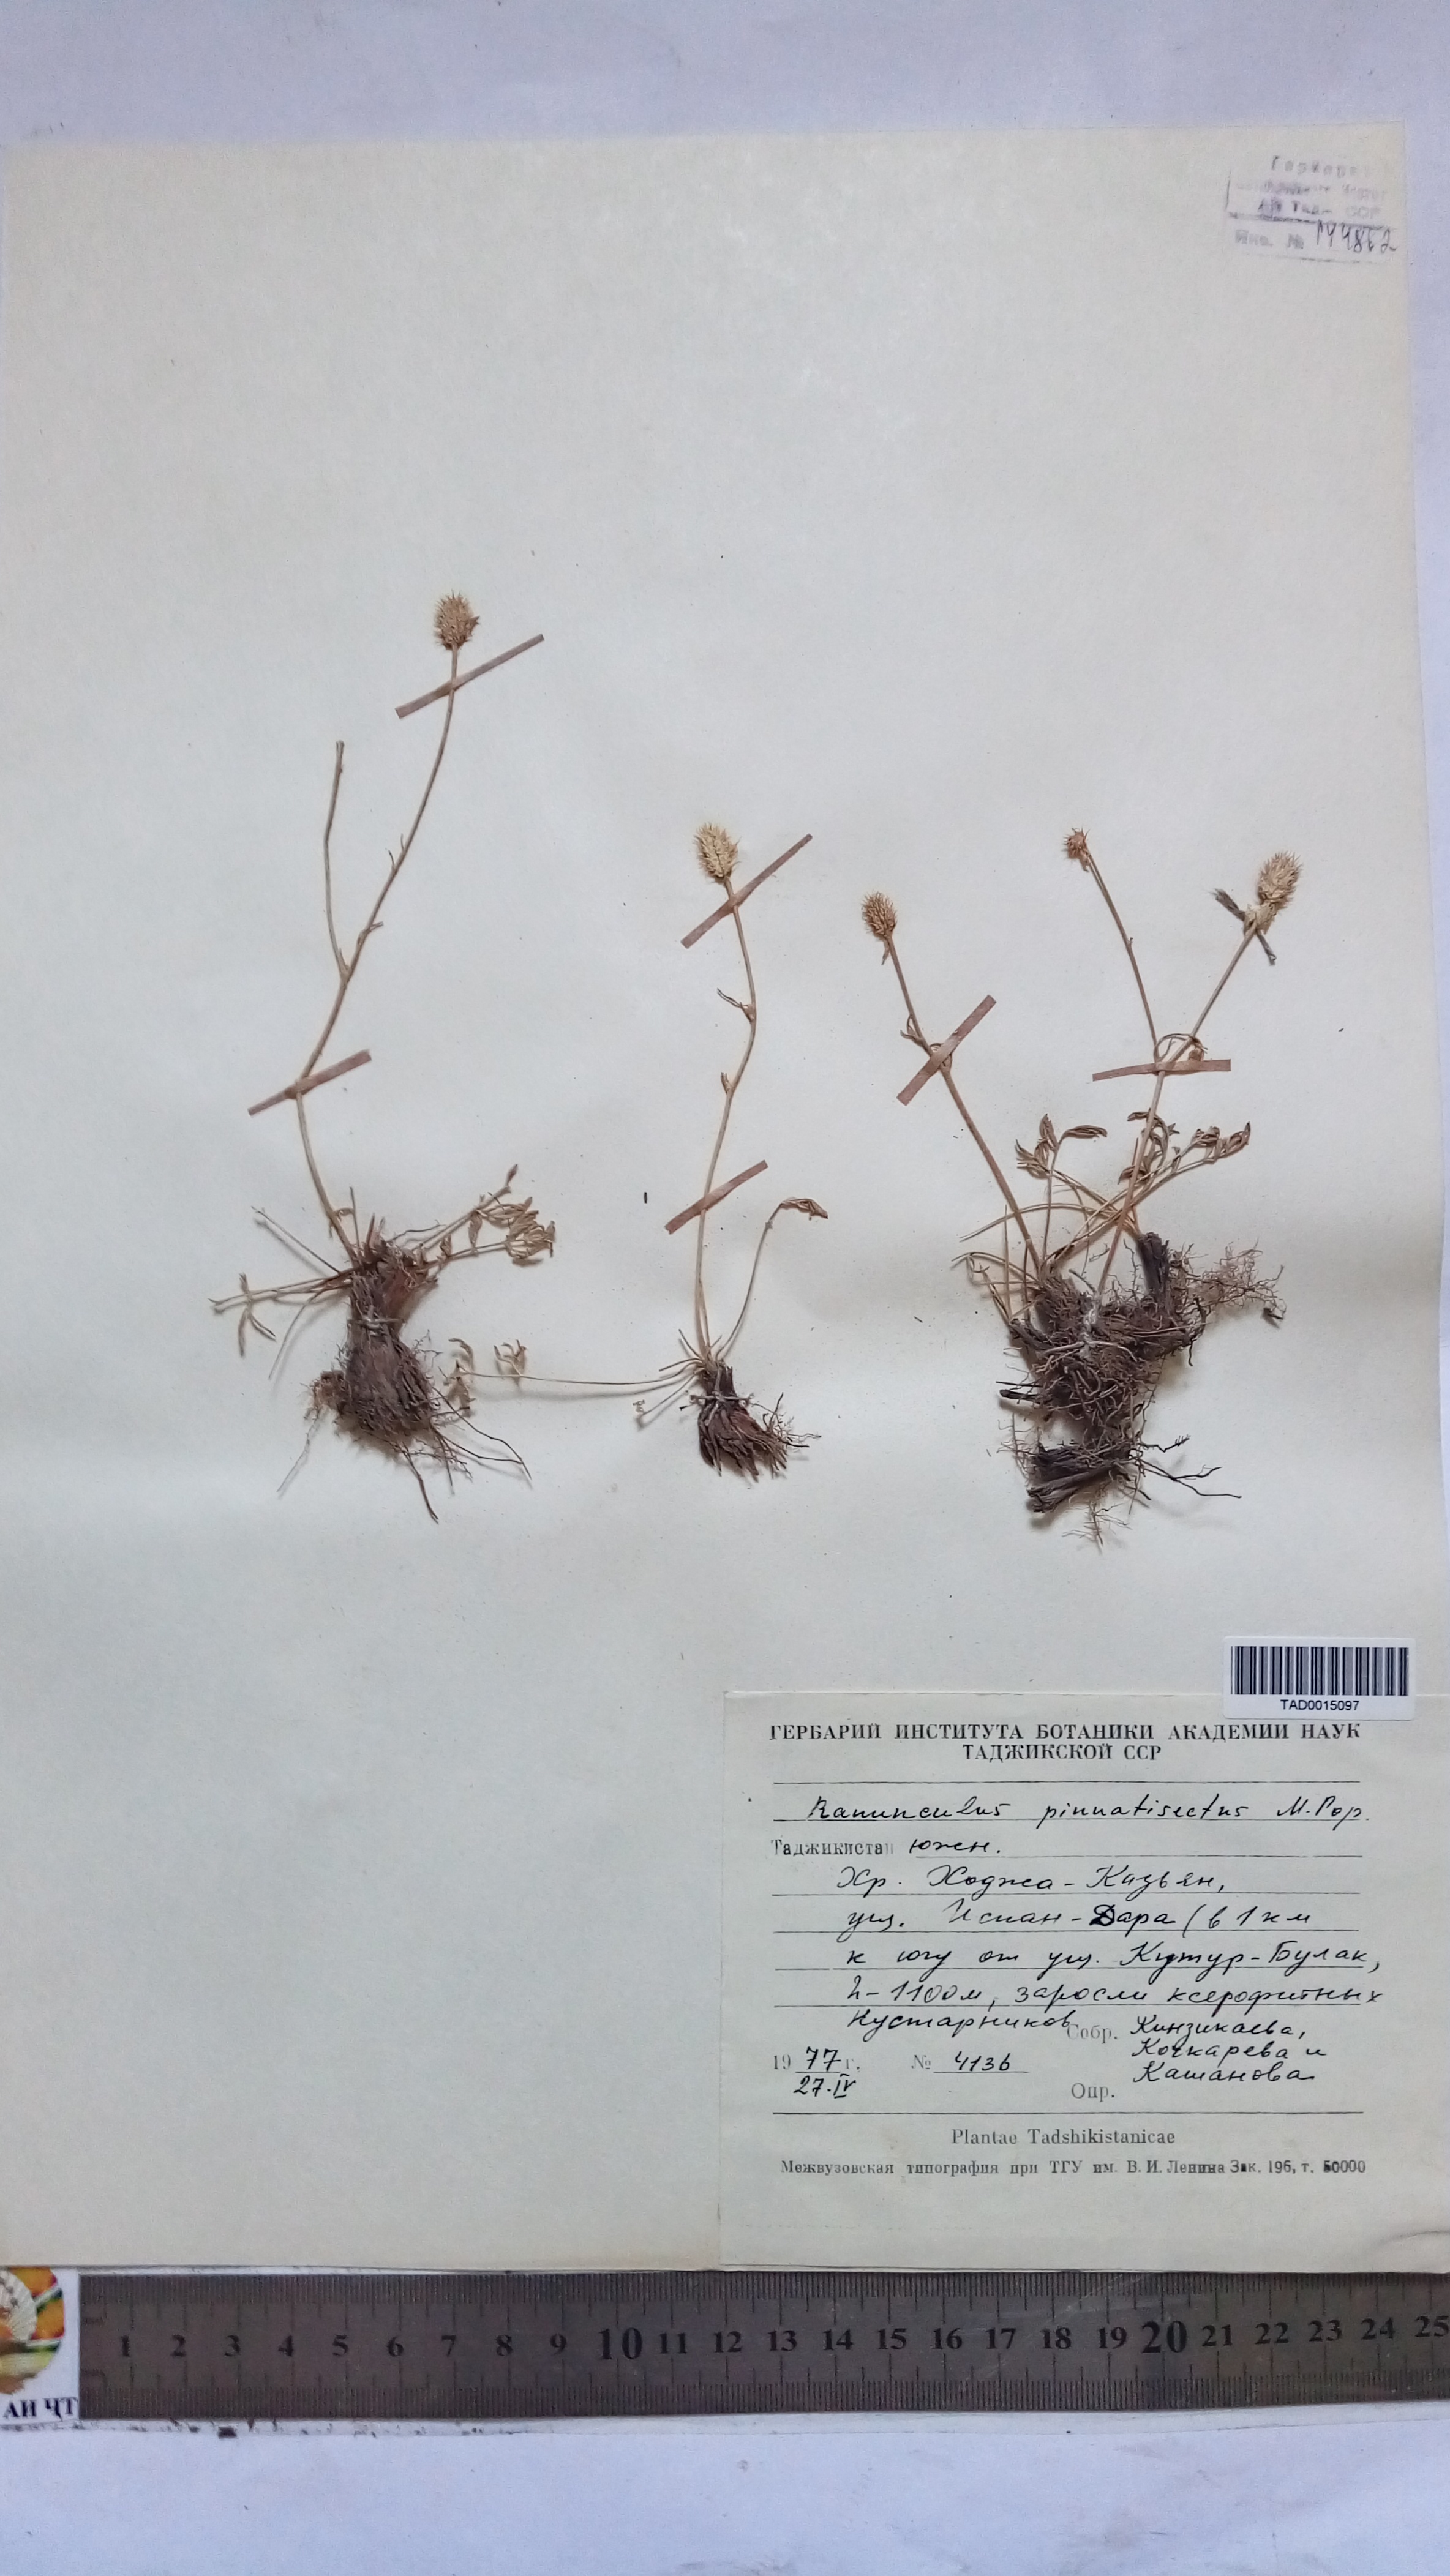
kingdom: Plantae
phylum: Tracheophyta
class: Magnoliopsida
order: Ranunculales
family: Ranunculaceae
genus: Ranunculus
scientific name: Ranunculus pinnatisectus
